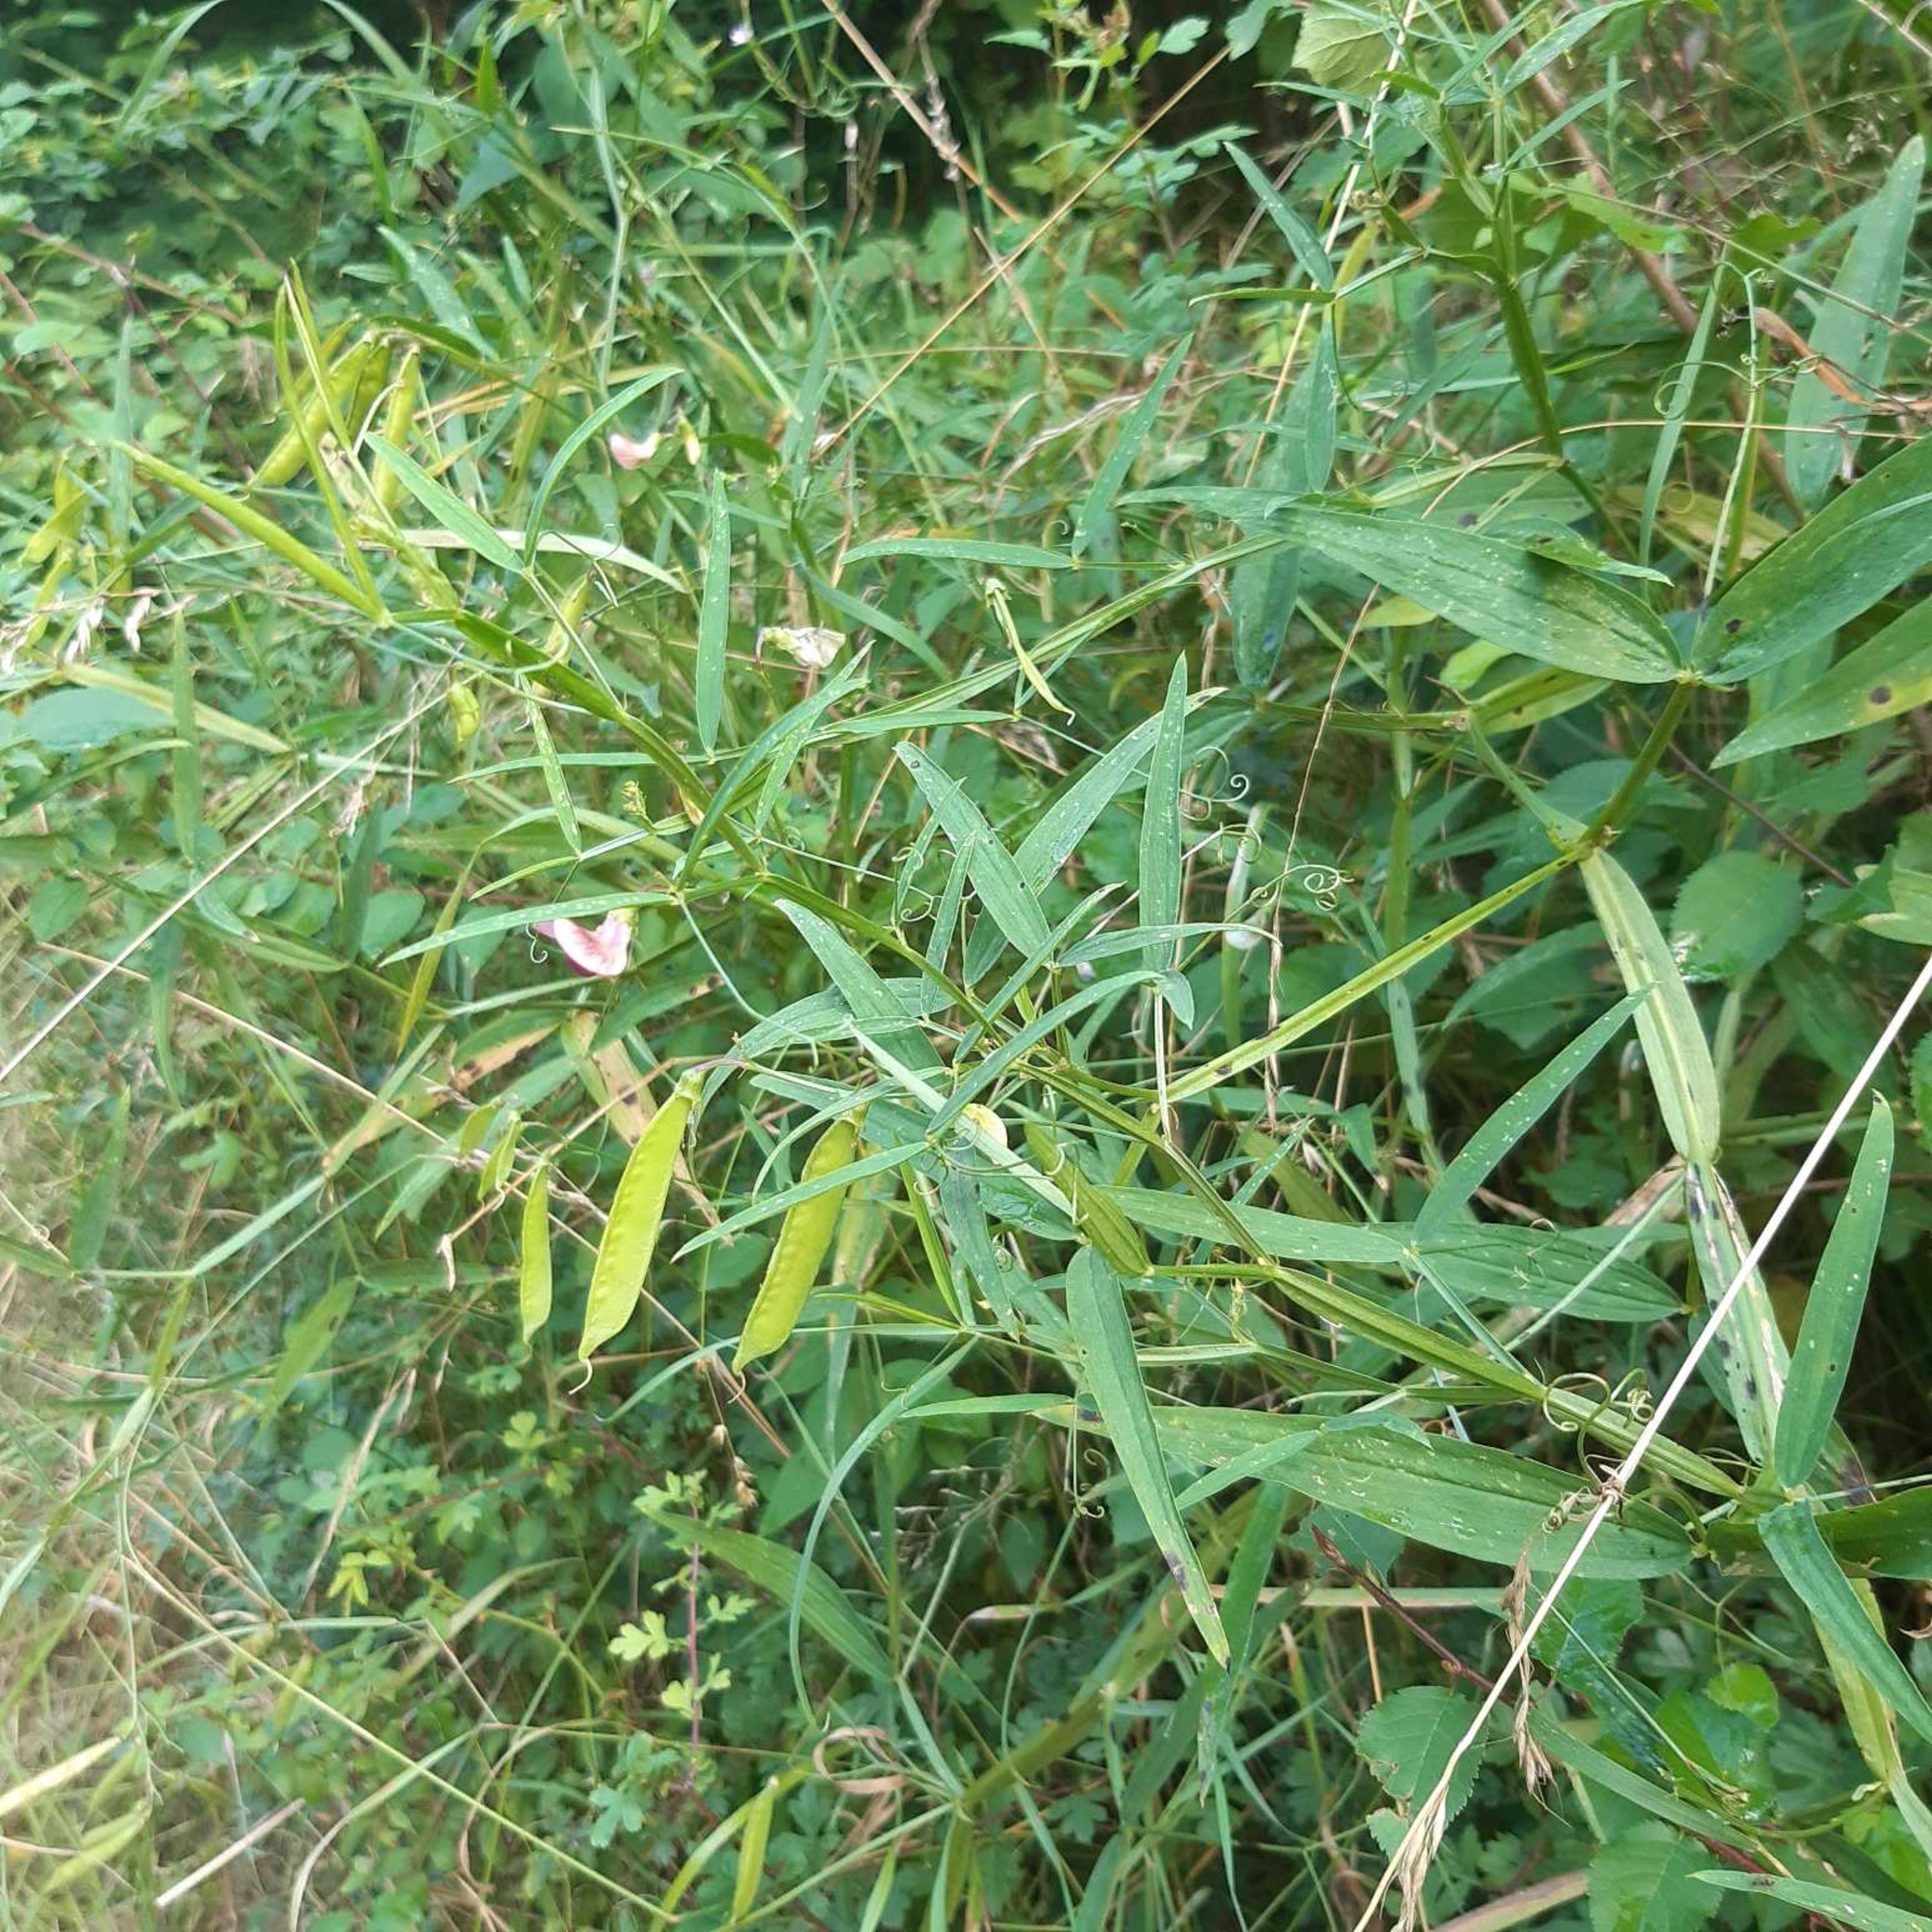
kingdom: Plantae
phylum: Tracheophyta
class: Magnoliopsida
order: Fabales
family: Fabaceae
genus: Lathyrus
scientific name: Lathyrus sylvestris
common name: Skov-fladbælg
